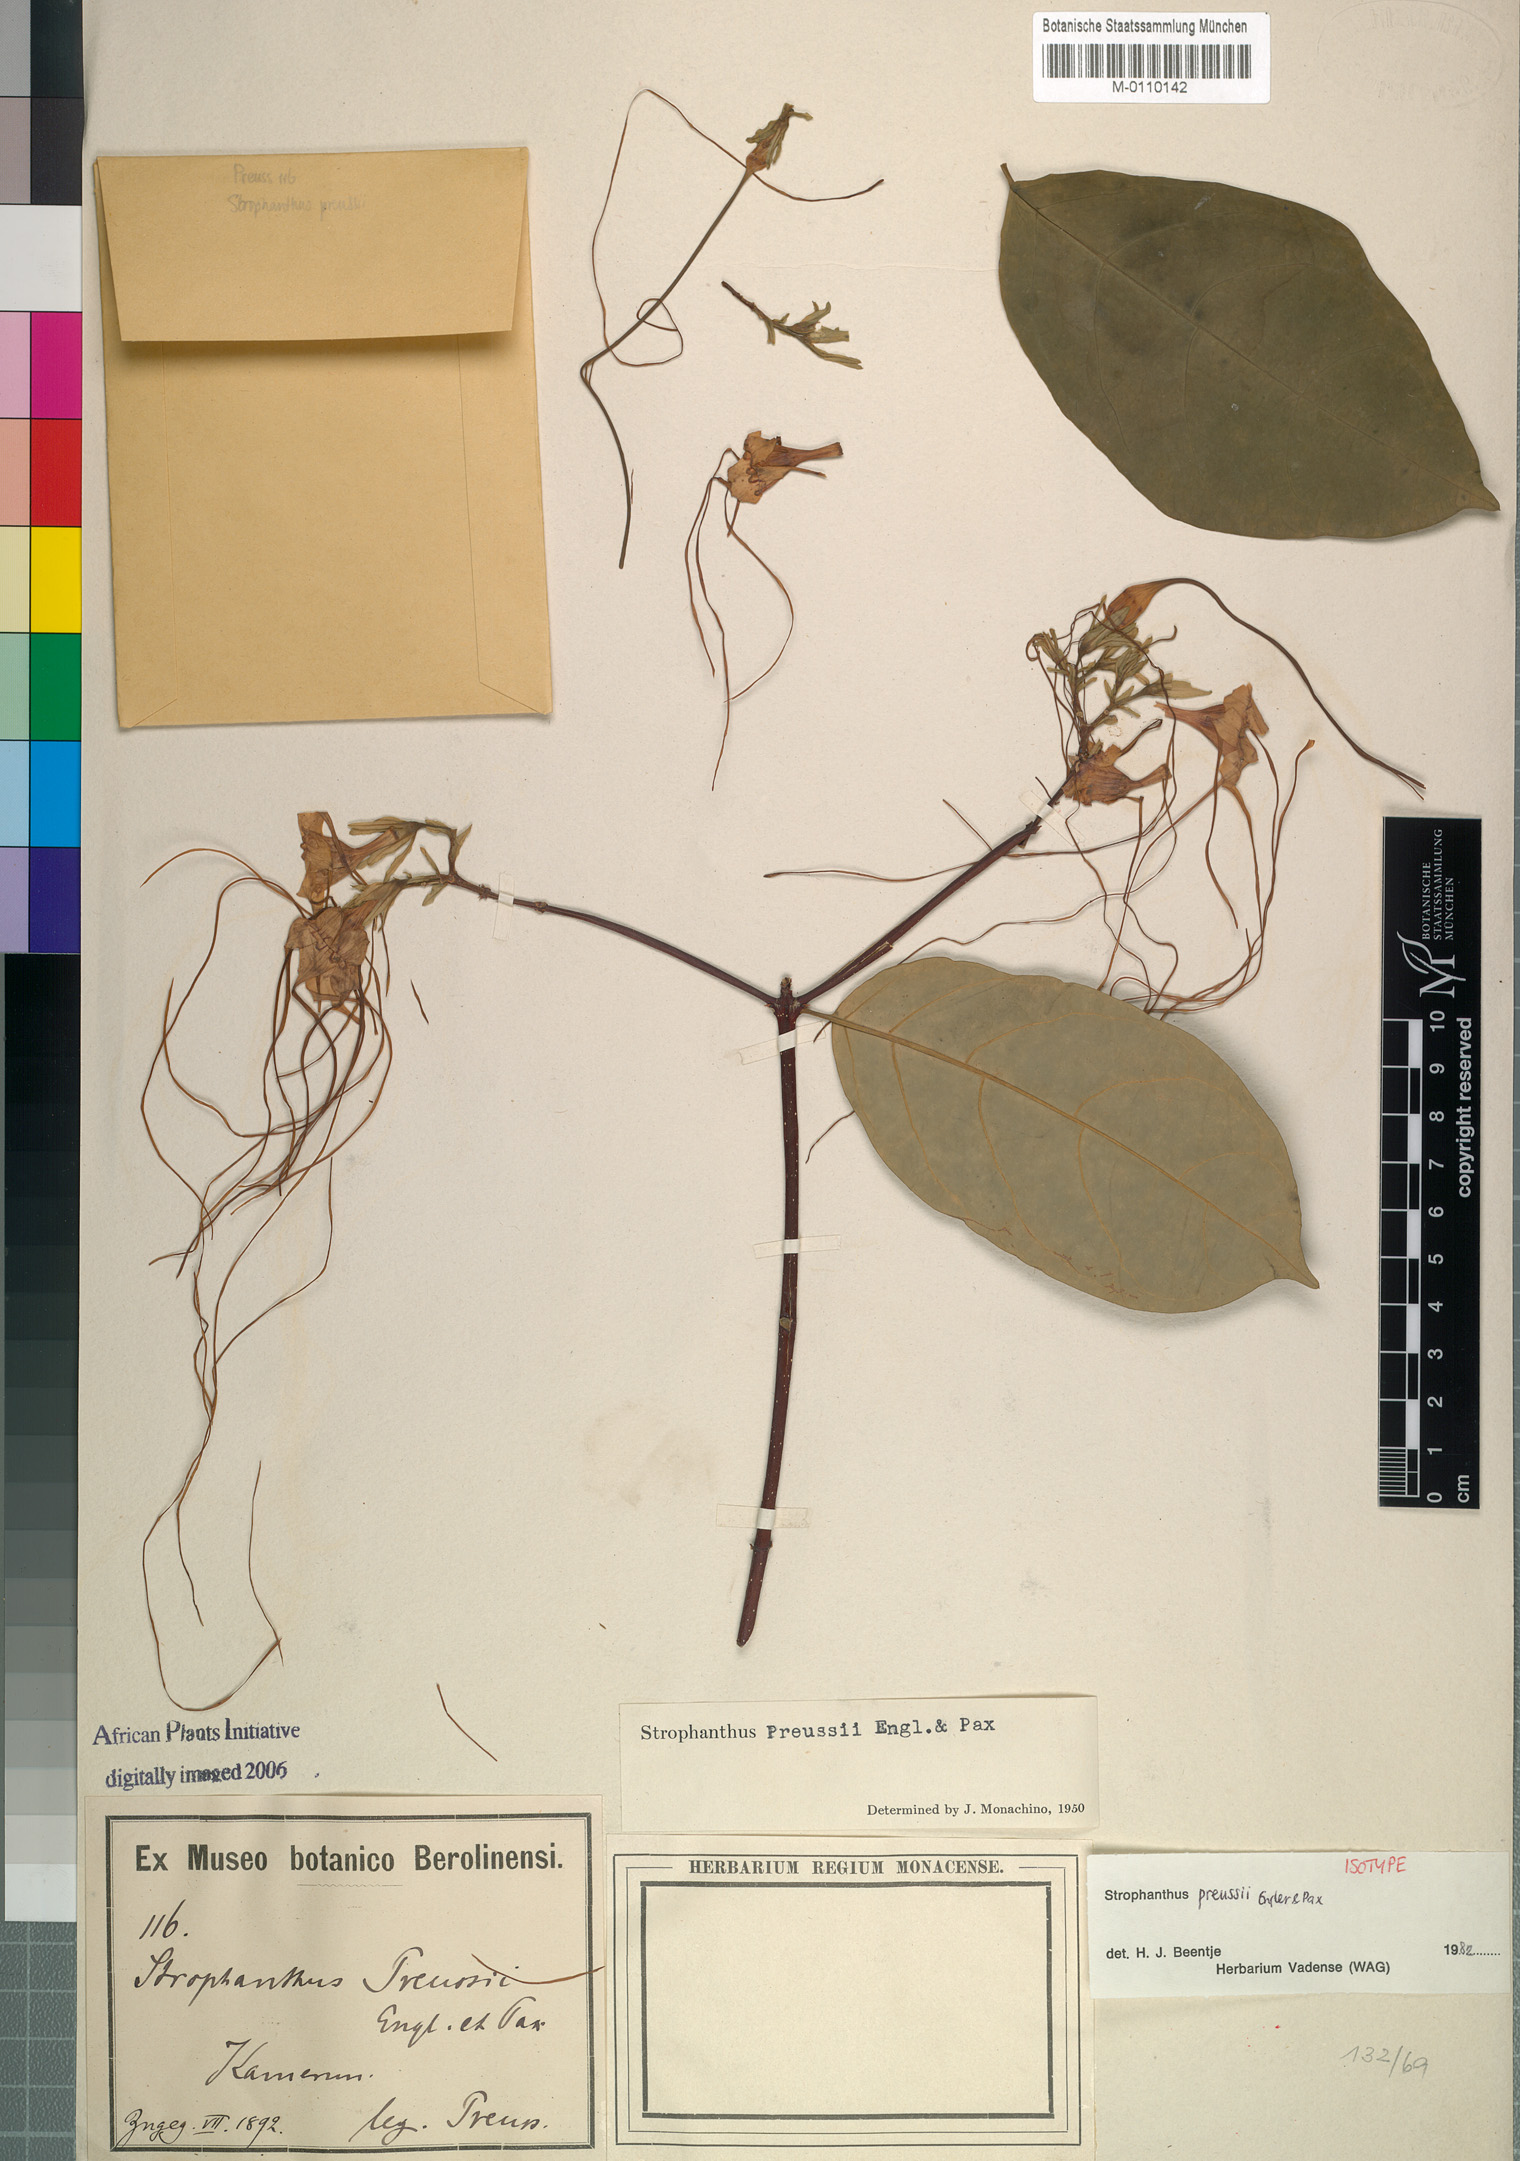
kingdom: Plantae
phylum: Tracheophyta
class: Magnoliopsida
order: Gentianales
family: Apocynaceae
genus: Strophanthus
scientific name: Strophanthus preussii
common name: Medisa-flower
